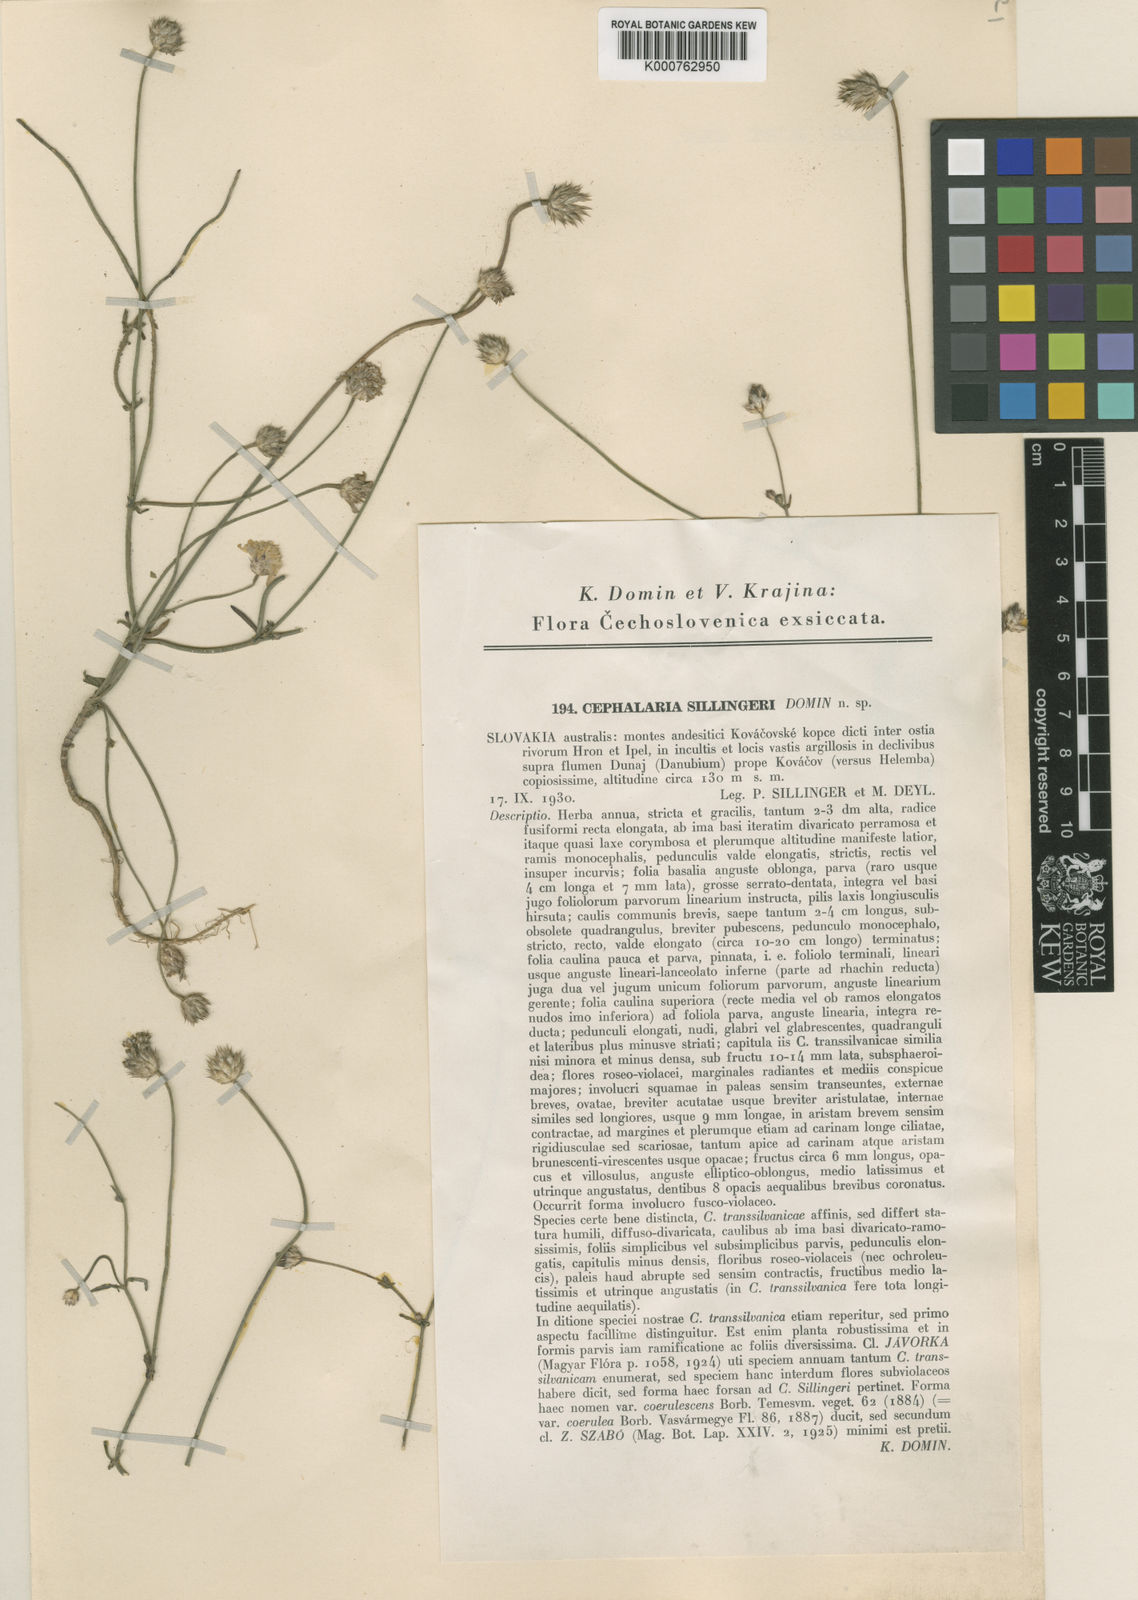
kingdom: Plantae
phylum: Tracheophyta
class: Magnoliopsida
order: Dipsacales
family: Caprifoliaceae
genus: Cephalaria
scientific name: Cephalaria transsylvanica
